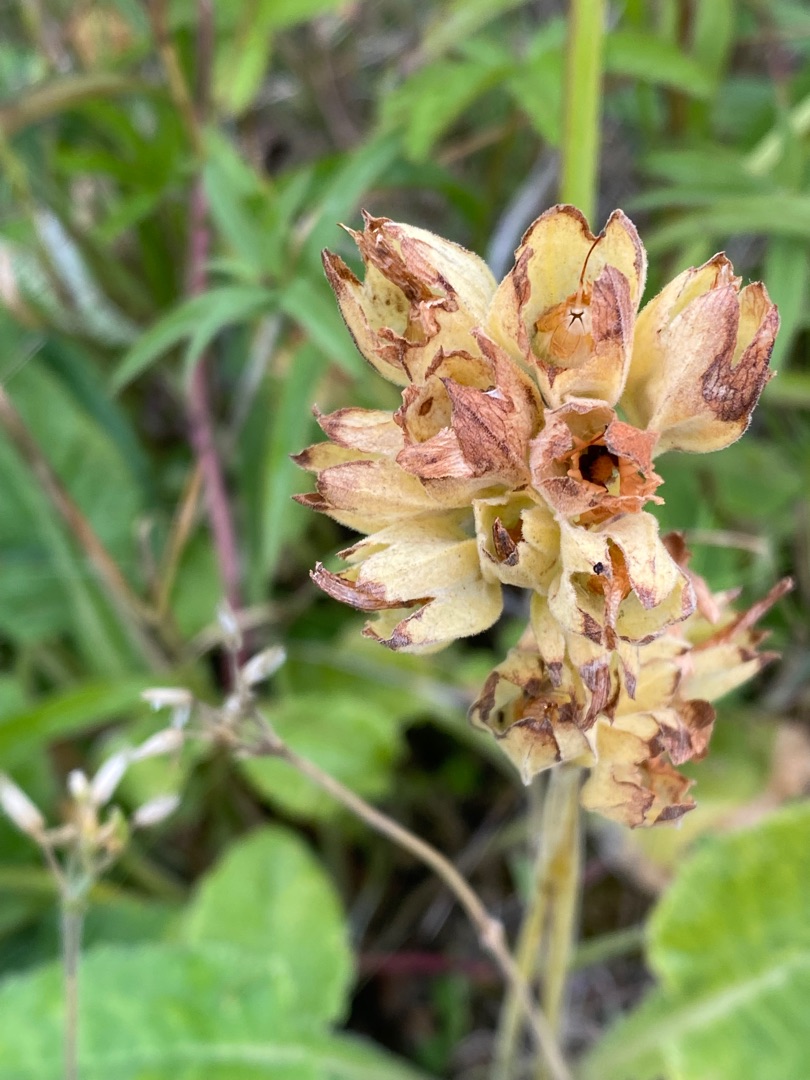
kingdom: Plantae
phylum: Tracheophyta
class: Magnoliopsida
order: Ericales
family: Primulaceae
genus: Primula
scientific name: Primula veris
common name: Hulkravet kodriver
